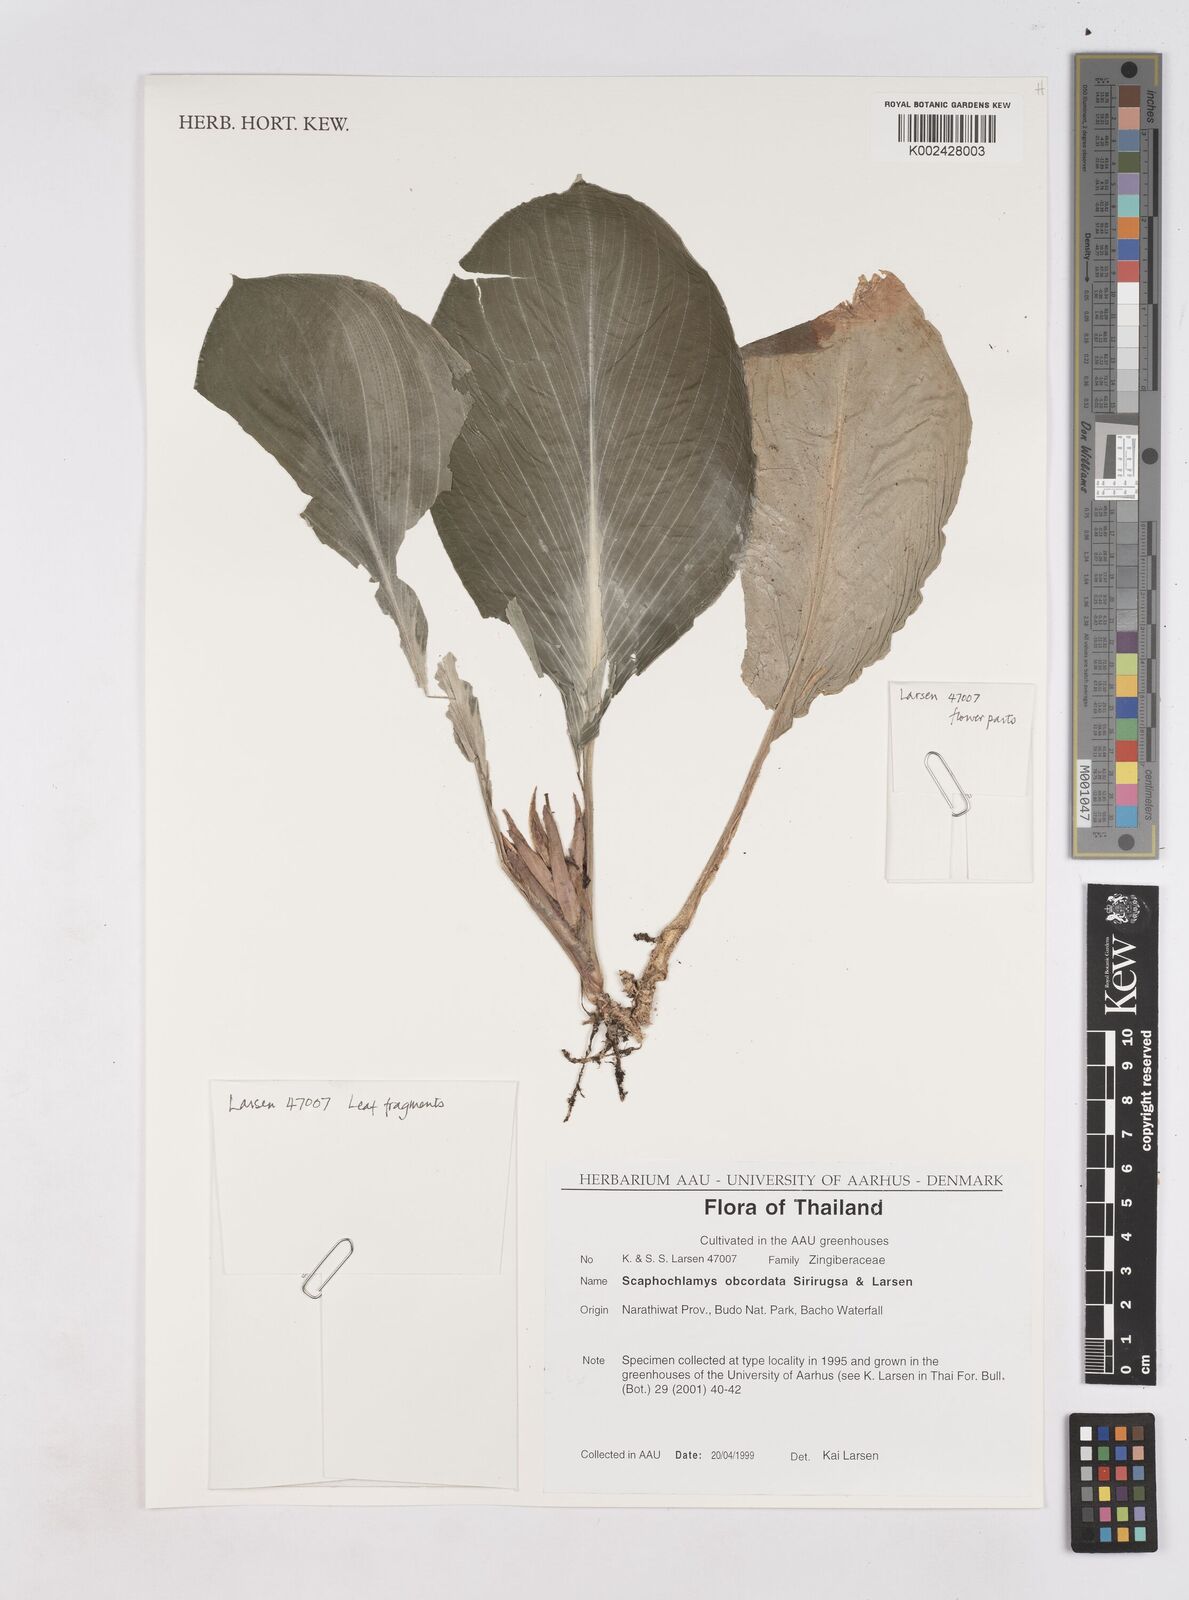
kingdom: Plantae
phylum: Tracheophyta
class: Liliopsida
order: Zingiberales
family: Zingiberaceae
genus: Scaphochlamys
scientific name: Scaphochlamys obcordata
